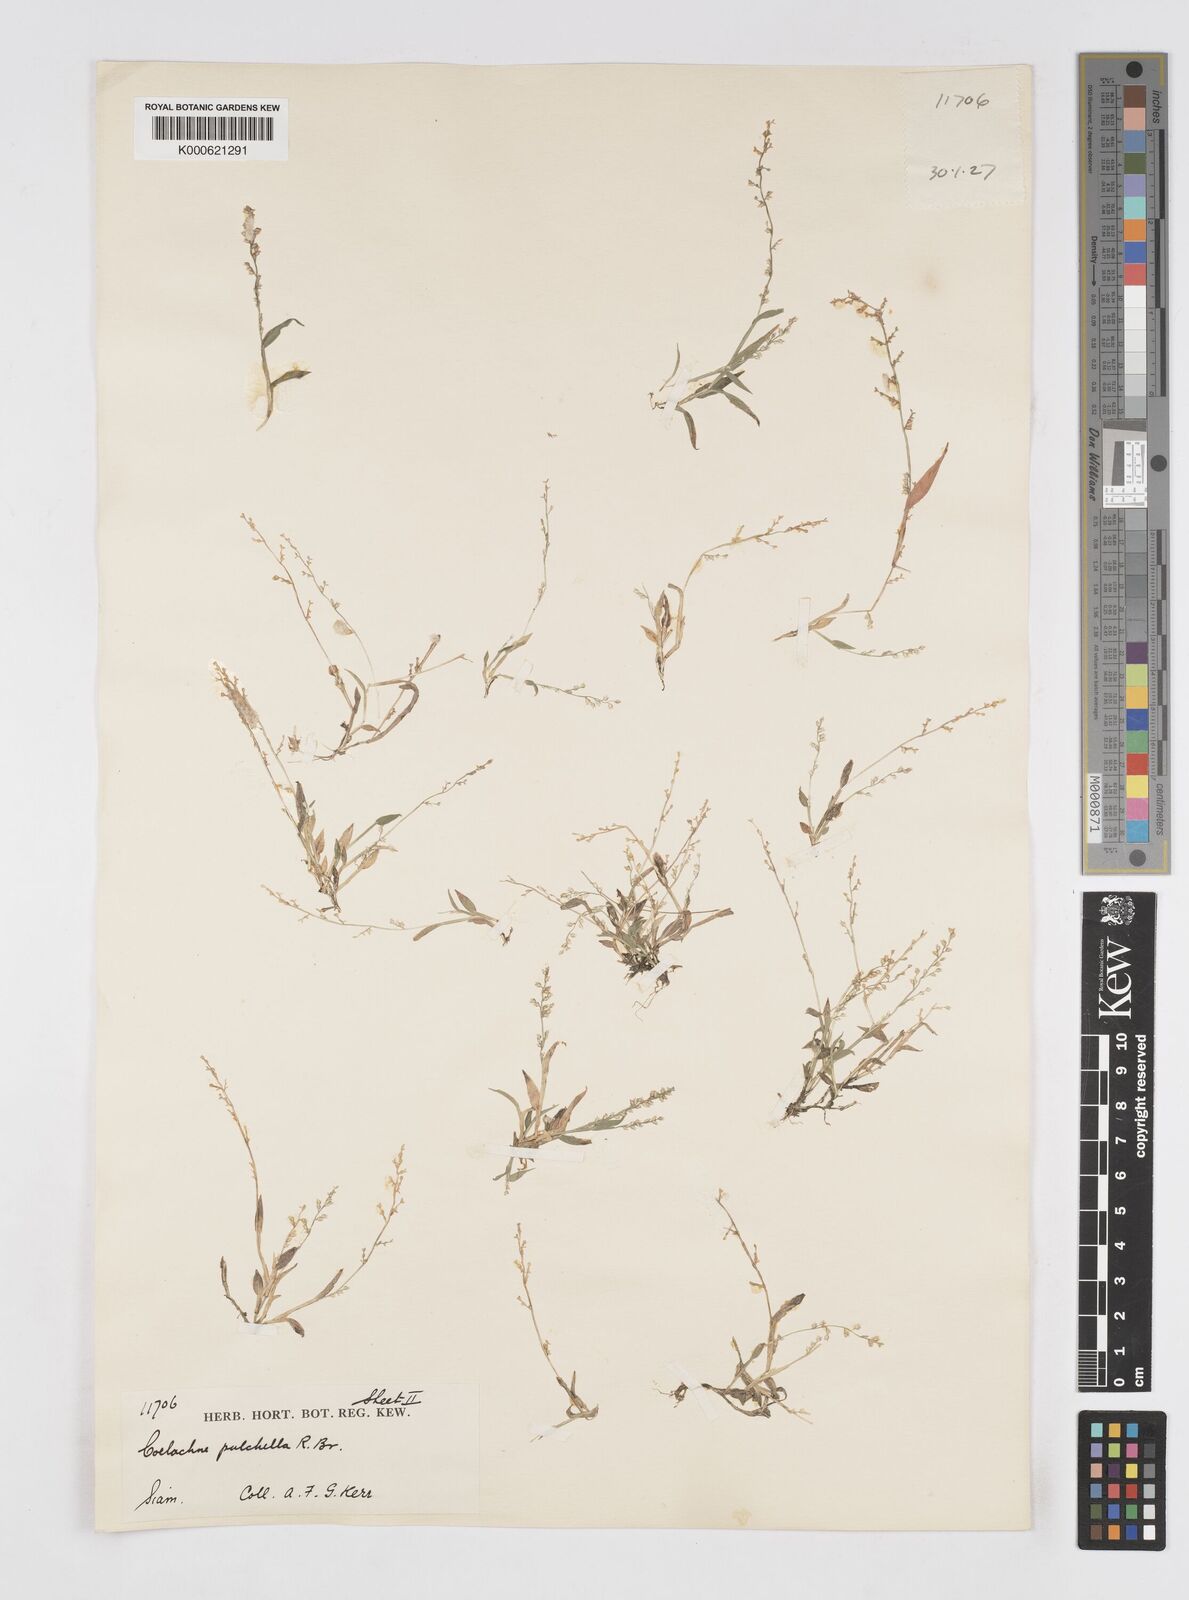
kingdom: Plantae
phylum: Tracheophyta
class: Liliopsida
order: Poales
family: Poaceae
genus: Coelachne
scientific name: Coelachne simpliciuscula
